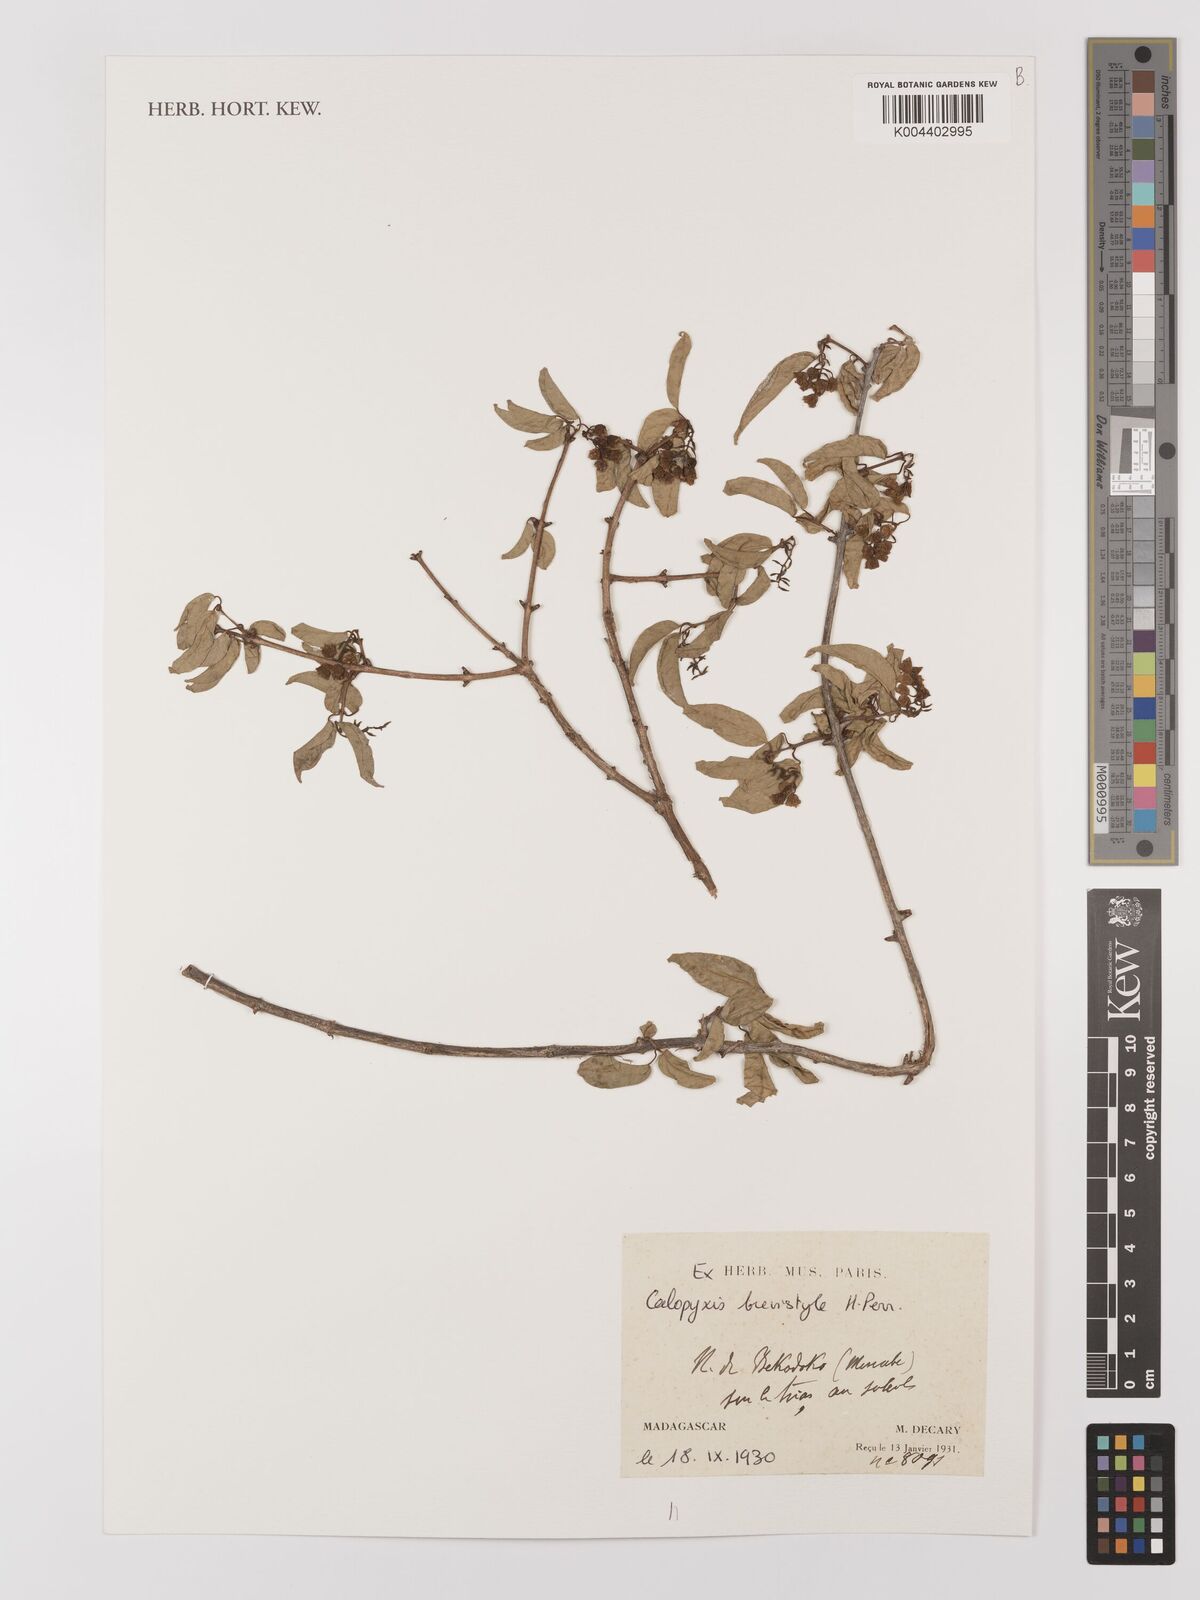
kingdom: Plantae
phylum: Tracheophyta
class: Magnoliopsida
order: Myrtales
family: Combretaceae
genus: Combretum
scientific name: Combretum brevistylum
